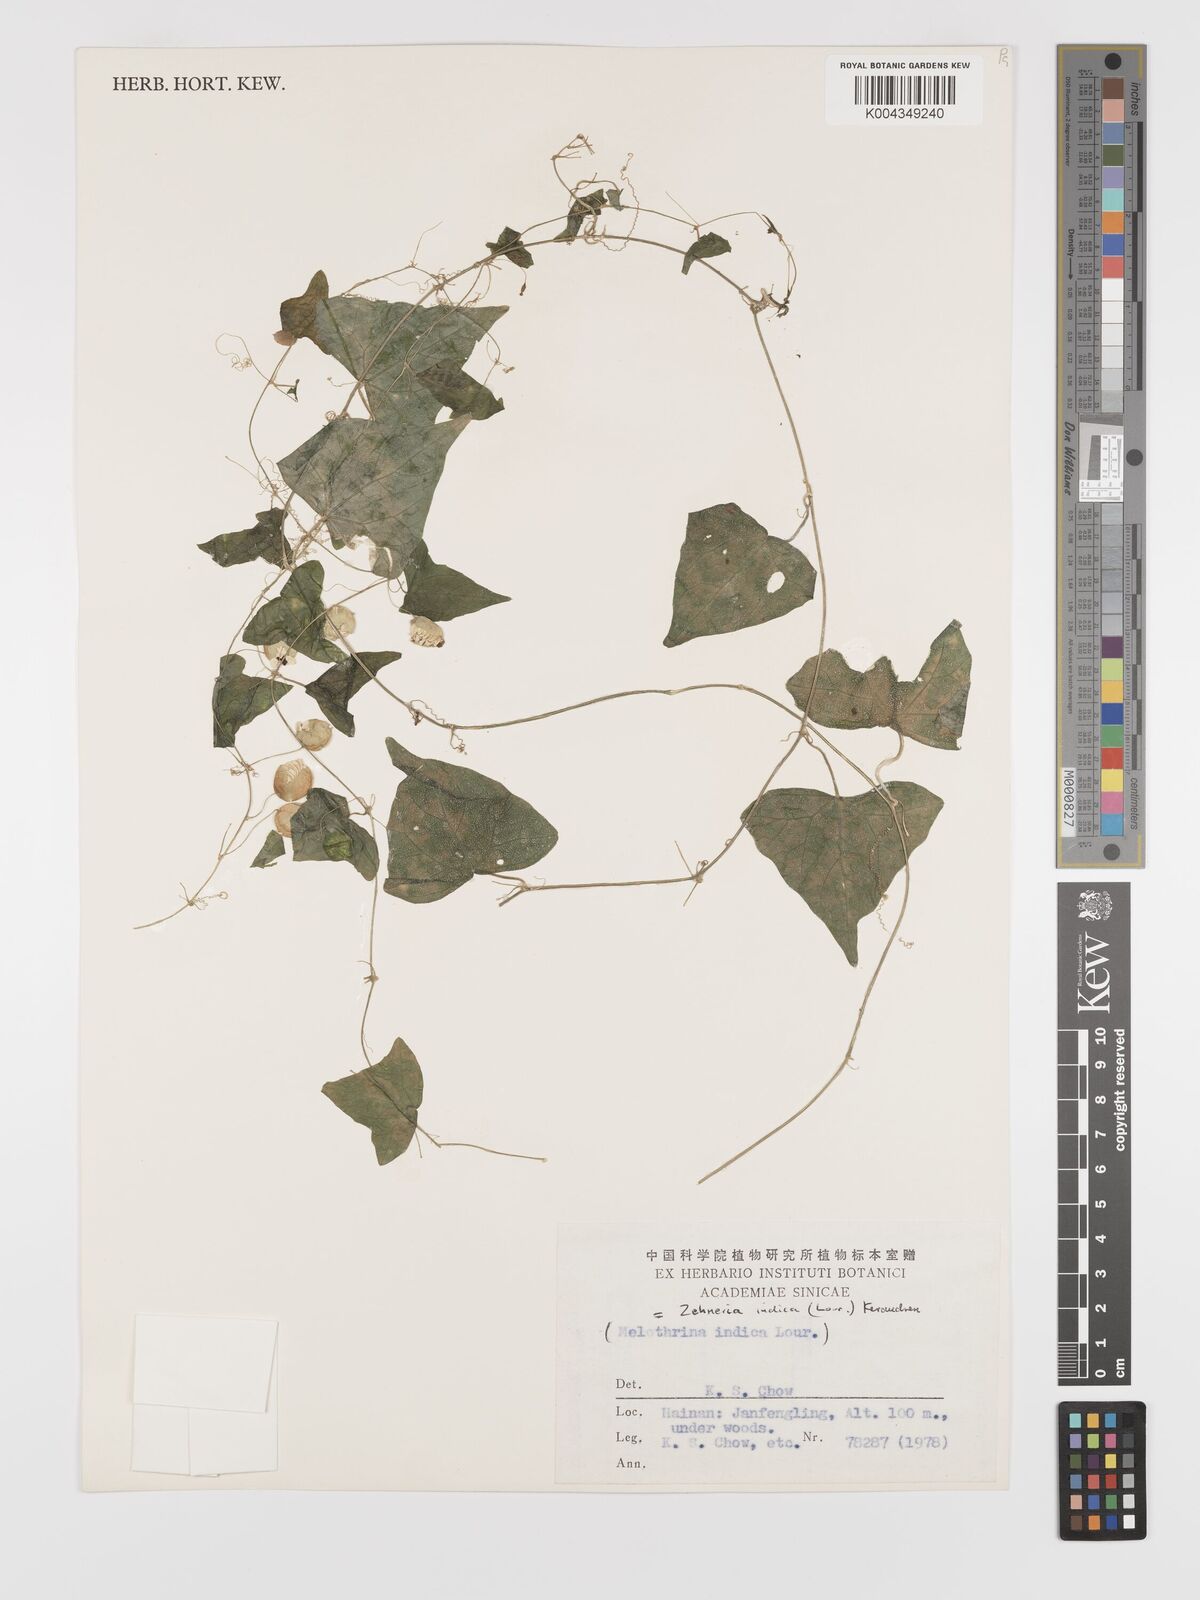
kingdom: Plantae
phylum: Tracheophyta
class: Magnoliopsida
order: Cucurbitales
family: Cucurbitaceae
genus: Zehneria
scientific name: Zehneria japonica
